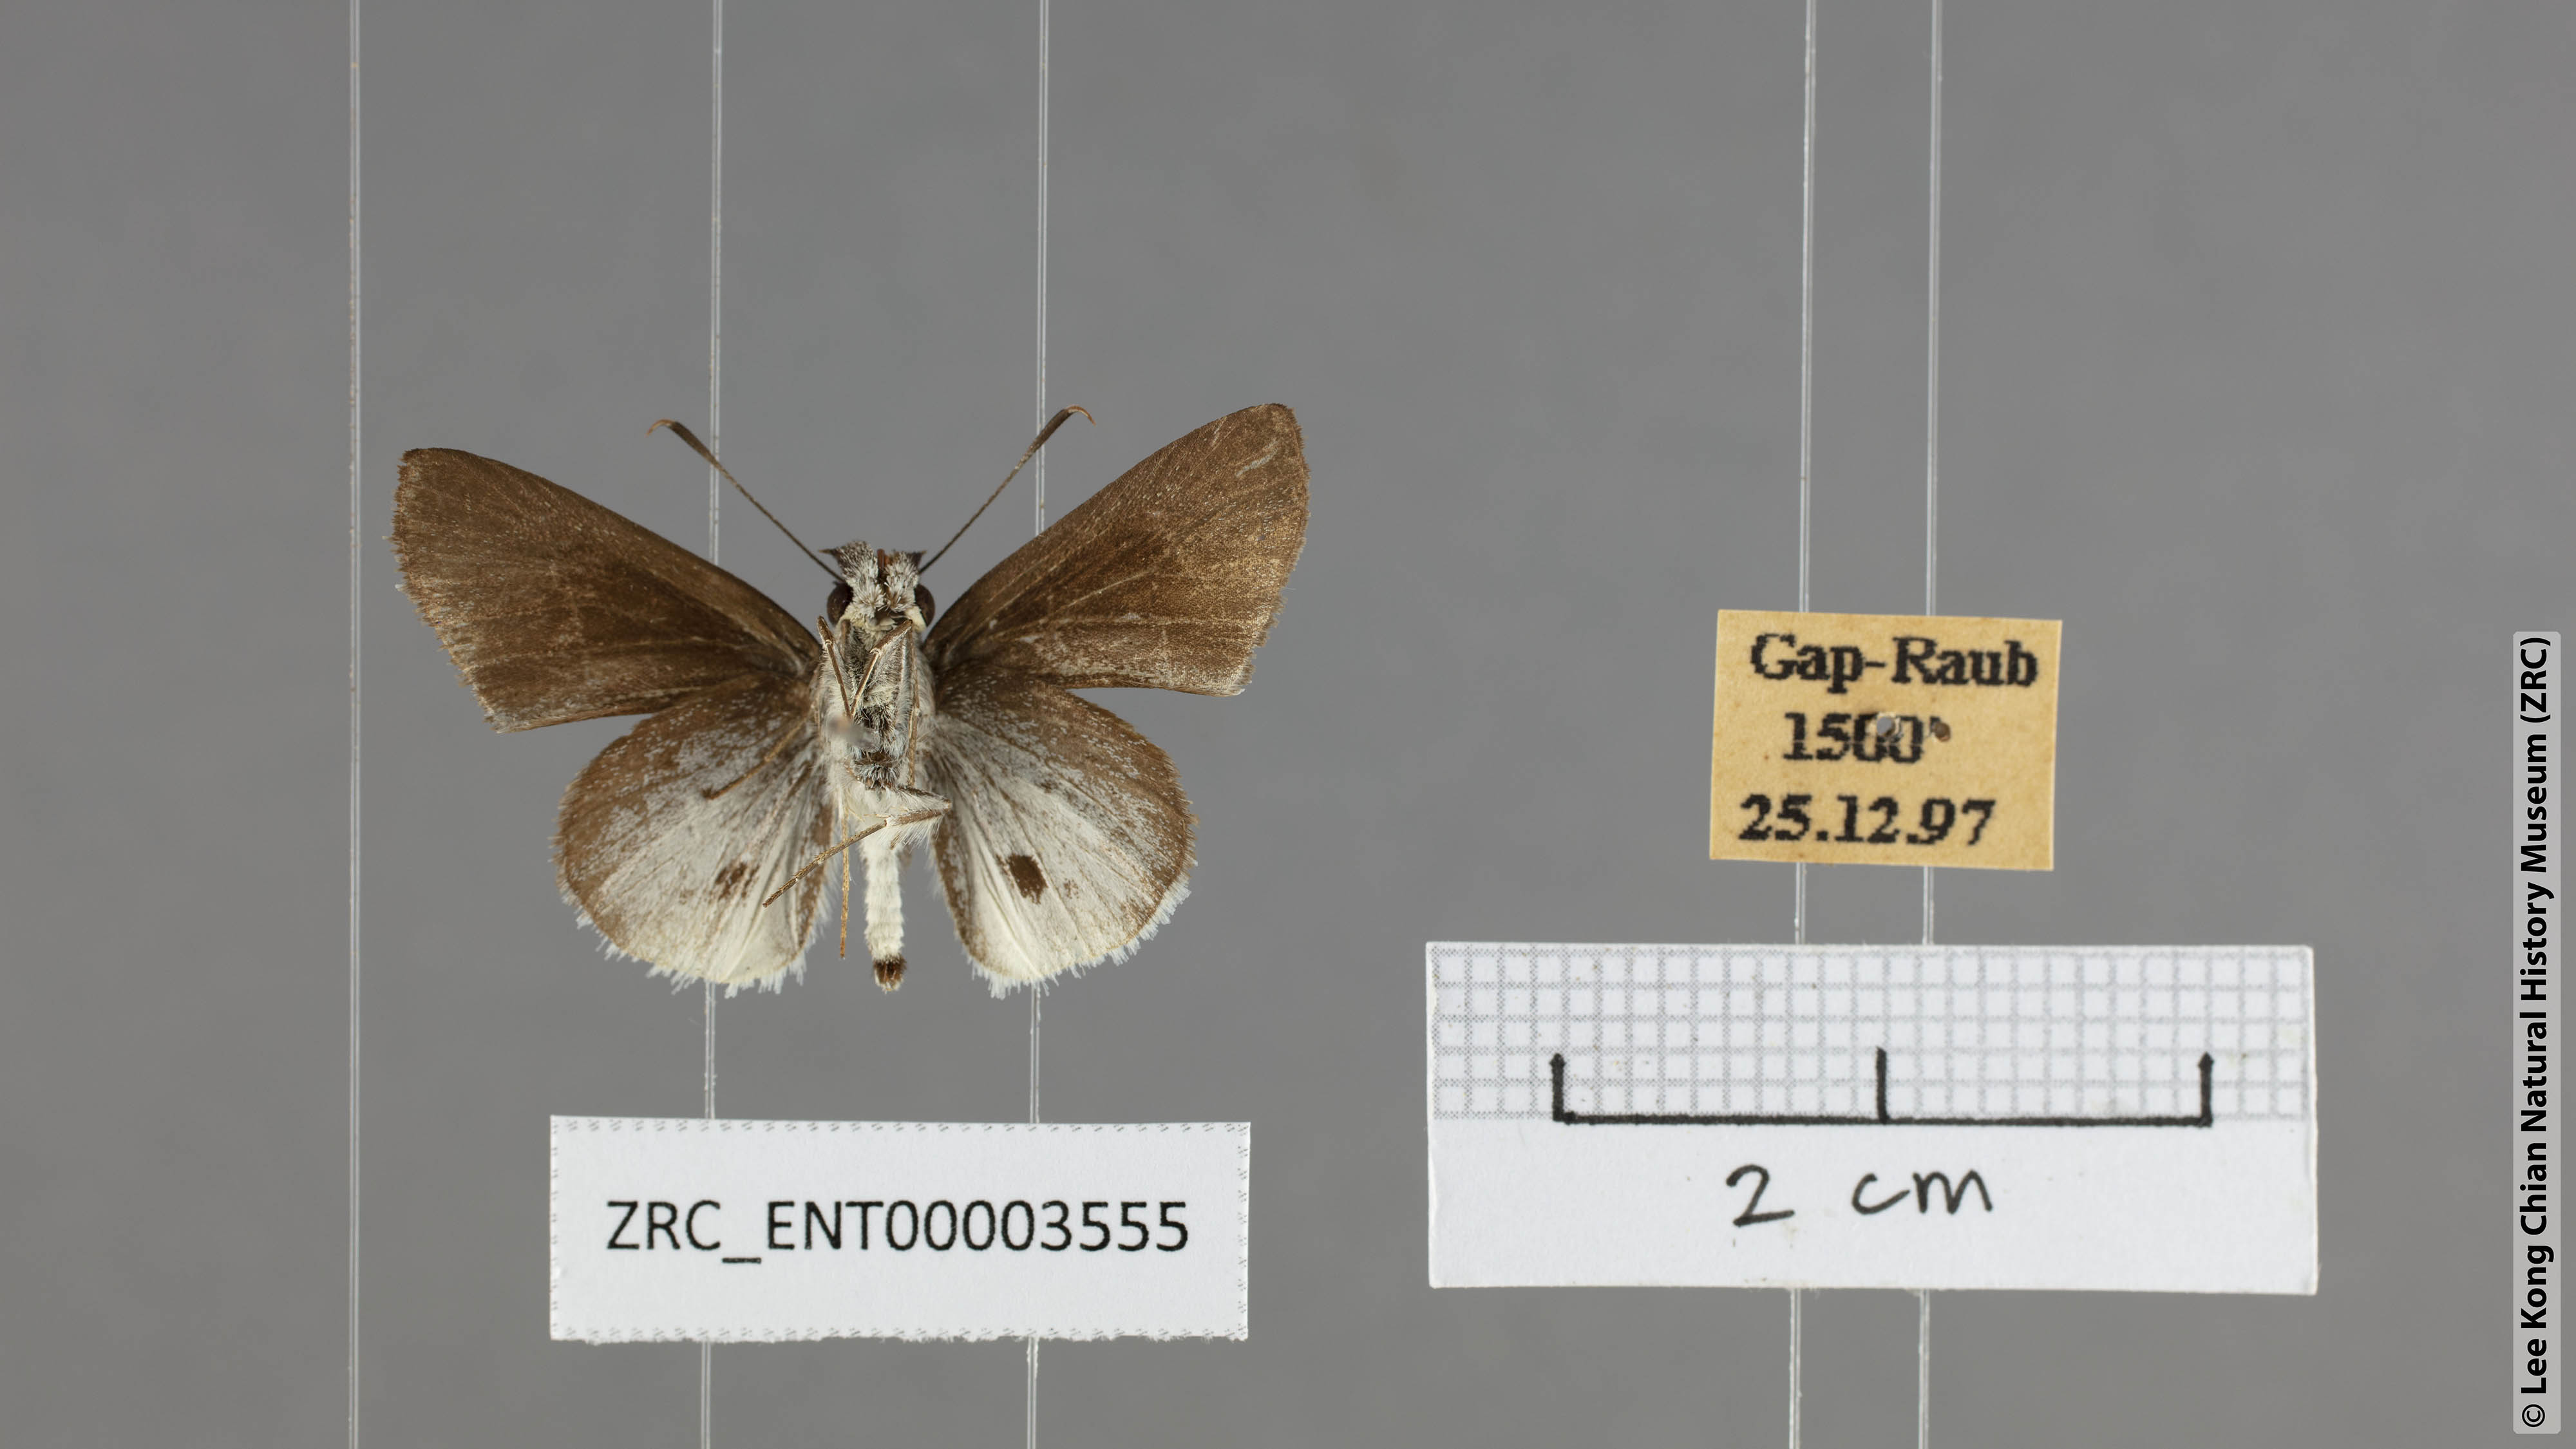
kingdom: Animalia
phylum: Arthropoda
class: Insecta
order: Lepidoptera
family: Hesperiidae
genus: Suastus
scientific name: Suastus everyx
